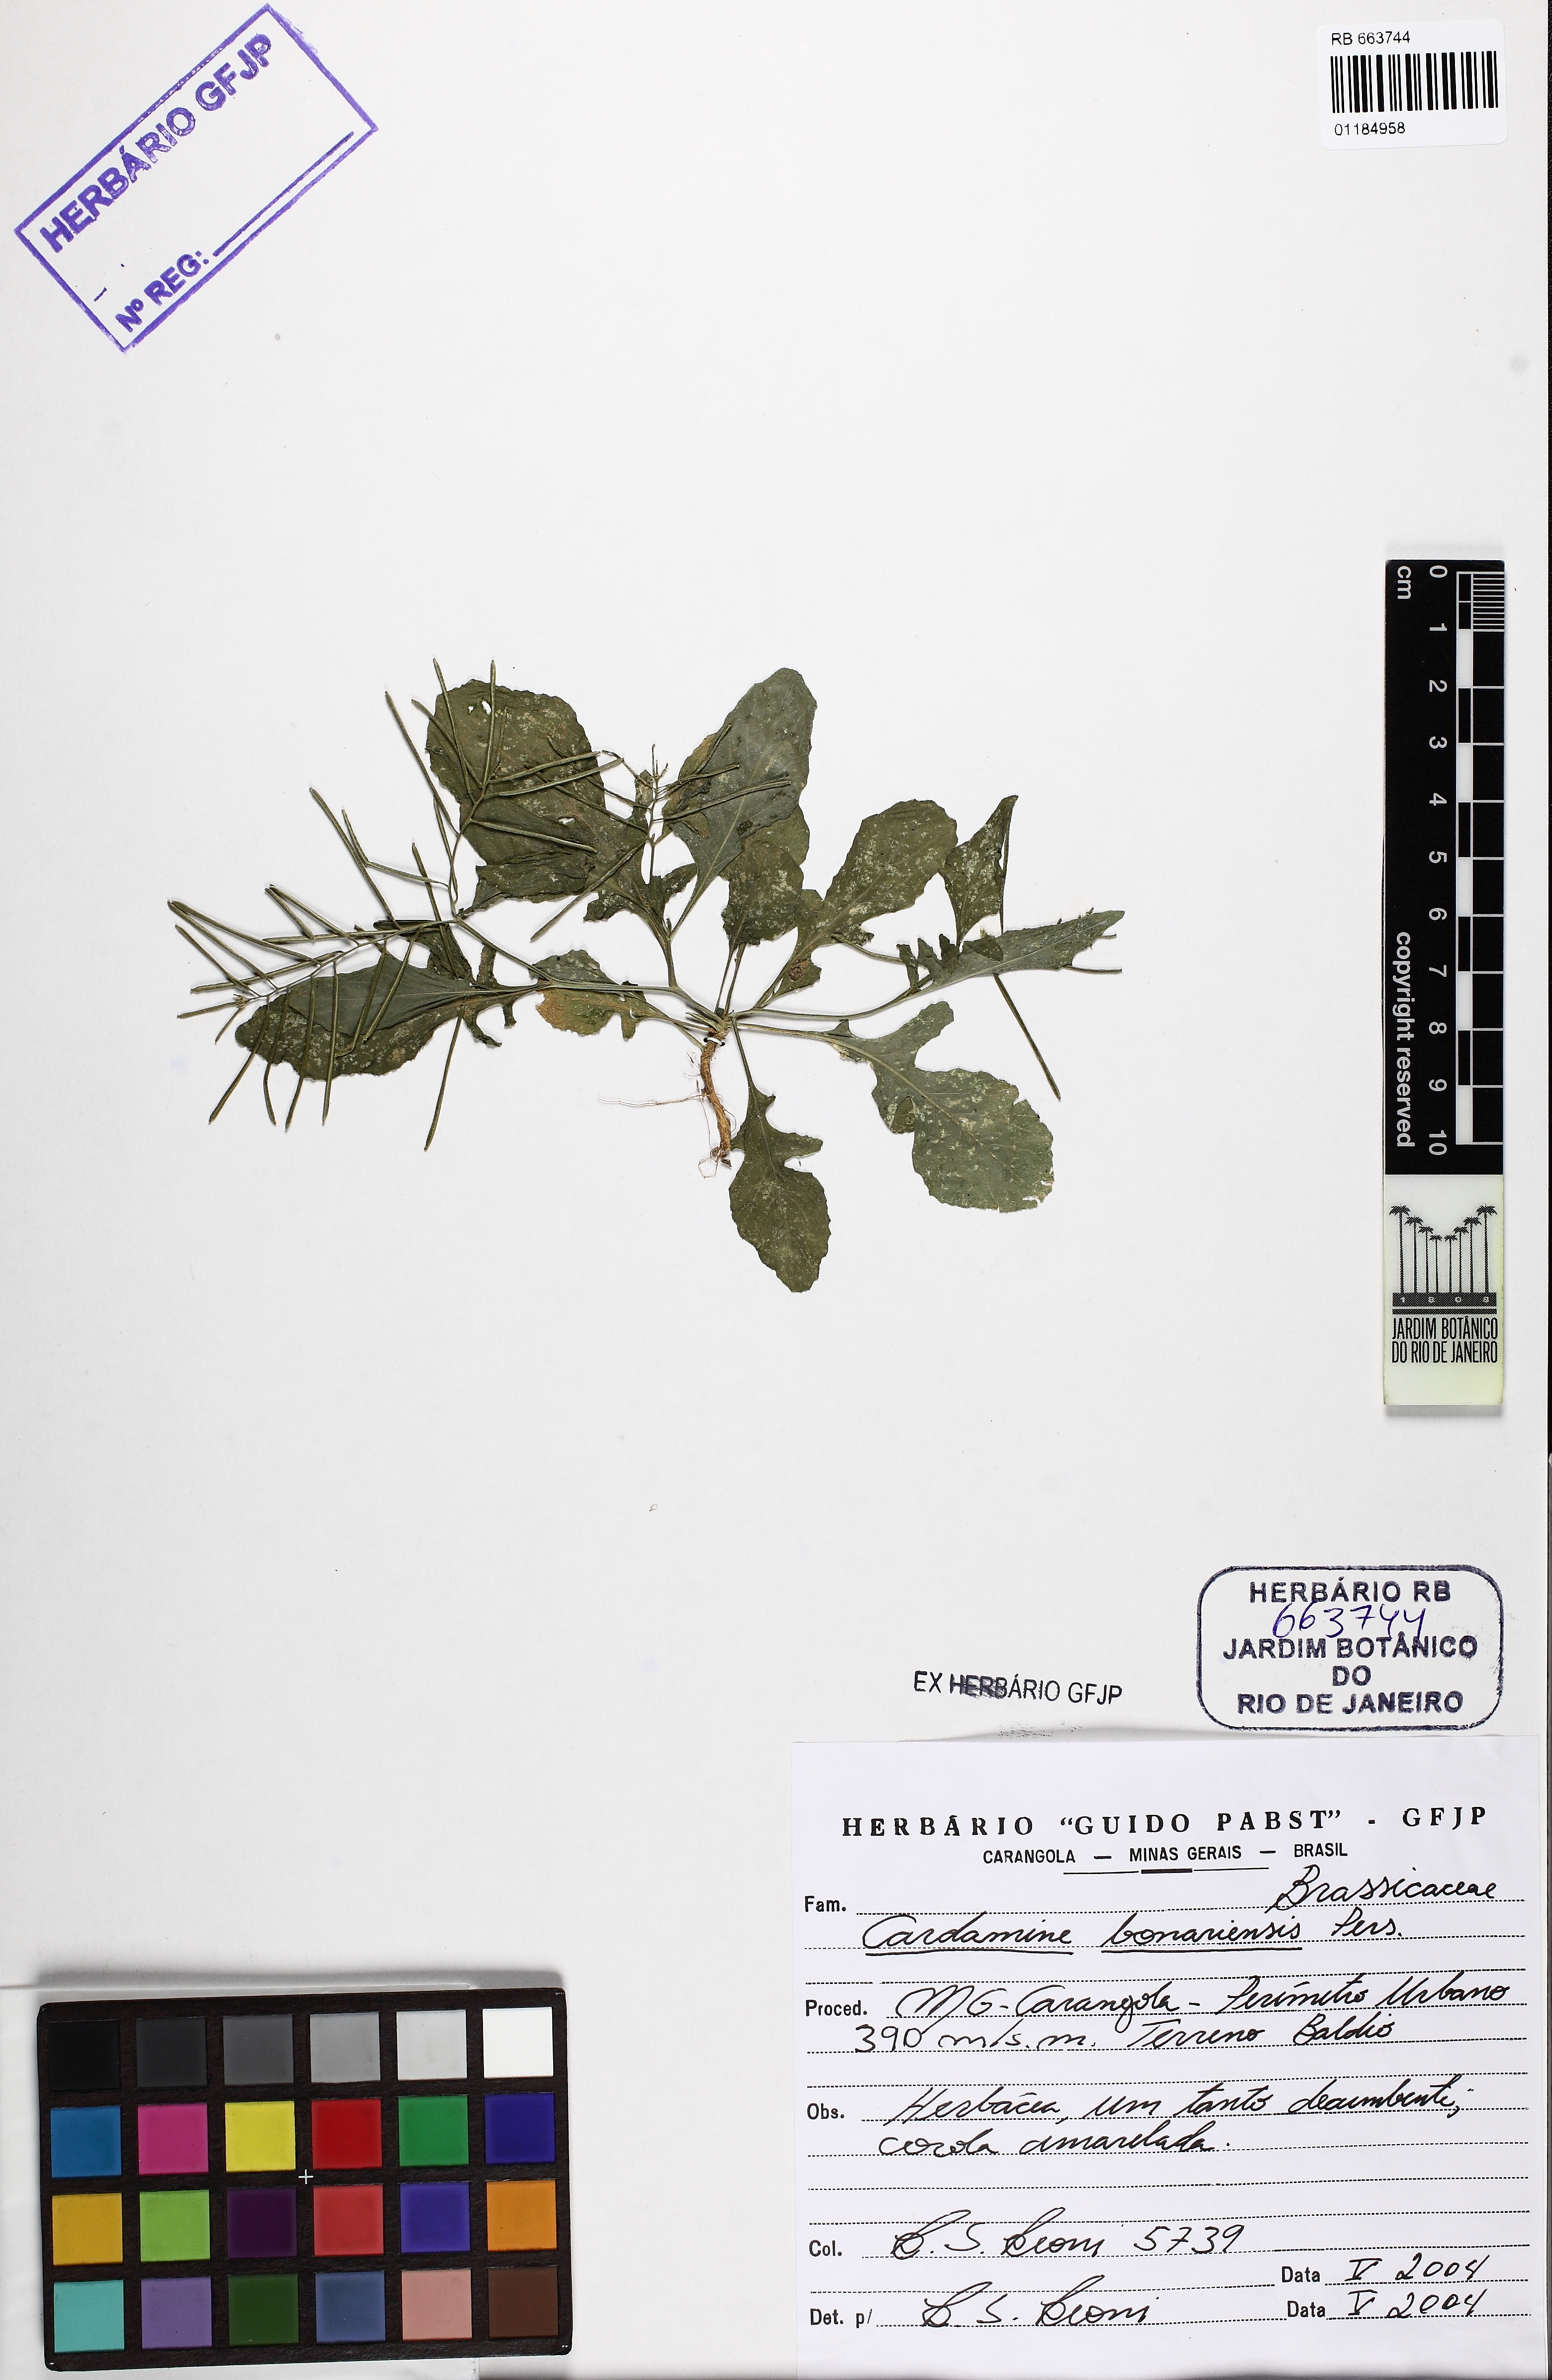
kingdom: Plantae
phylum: Tracheophyta
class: Magnoliopsida
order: Brassicales
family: Brassicaceae
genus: Cardamine
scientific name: Cardamine bonariensis
